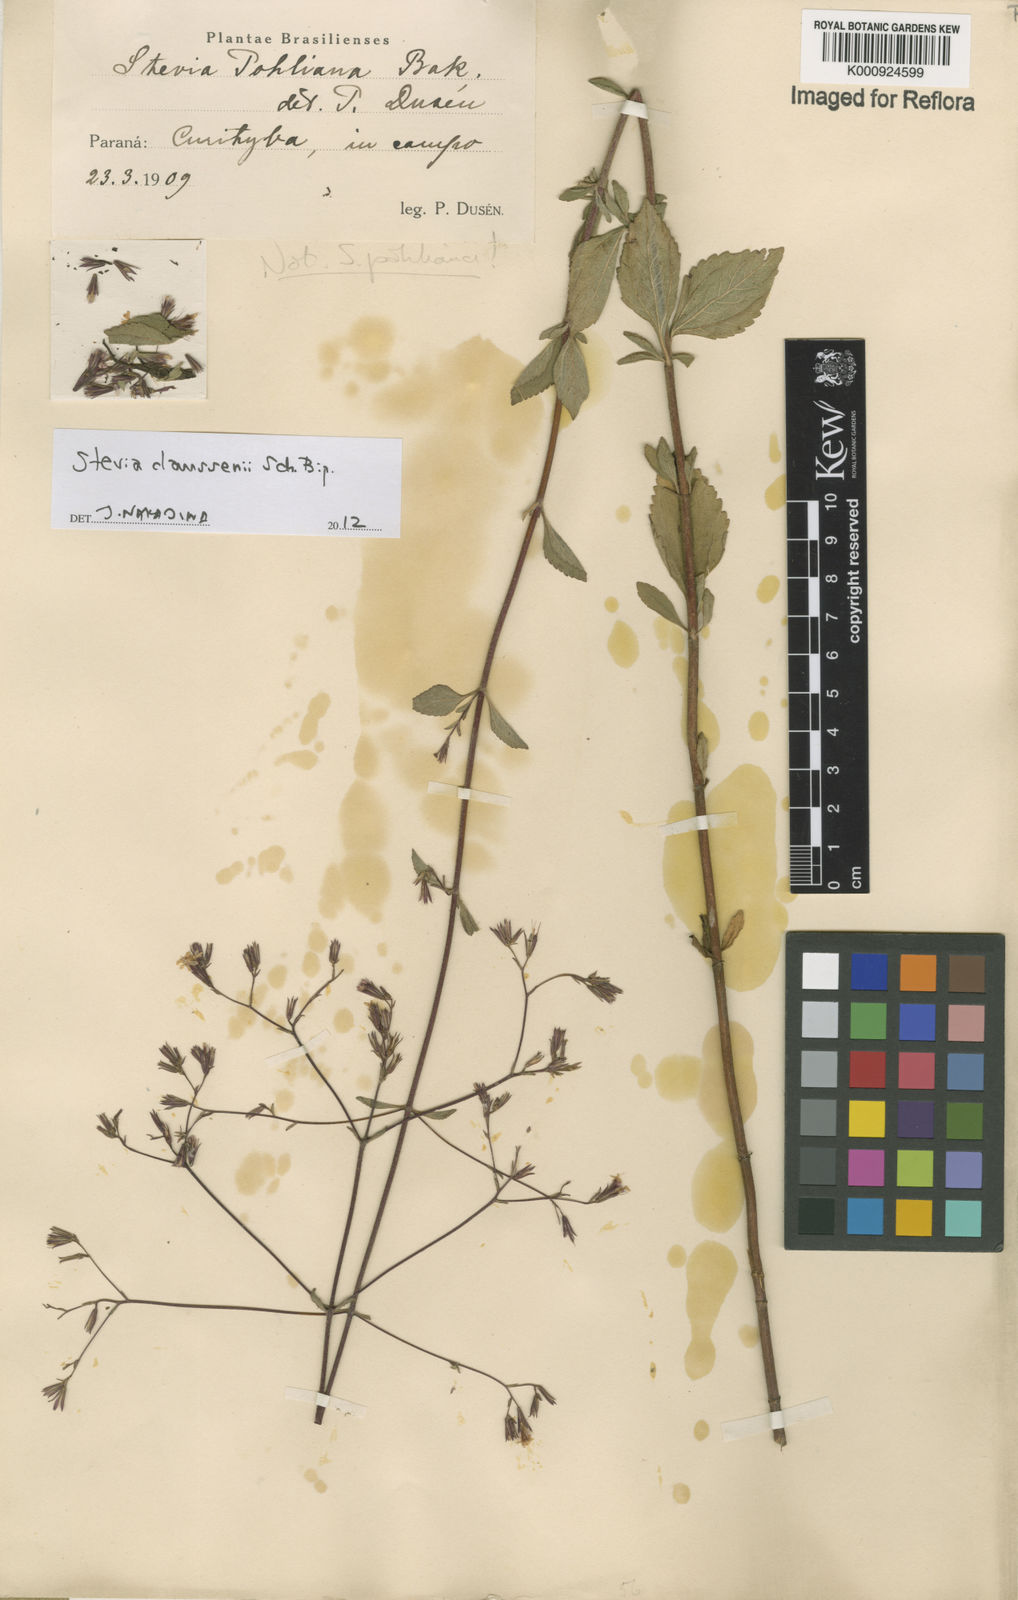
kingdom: Plantae
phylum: Tracheophyta
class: Magnoliopsida
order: Asterales
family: Asteraceae
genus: Stevia
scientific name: Stevia claussenii
